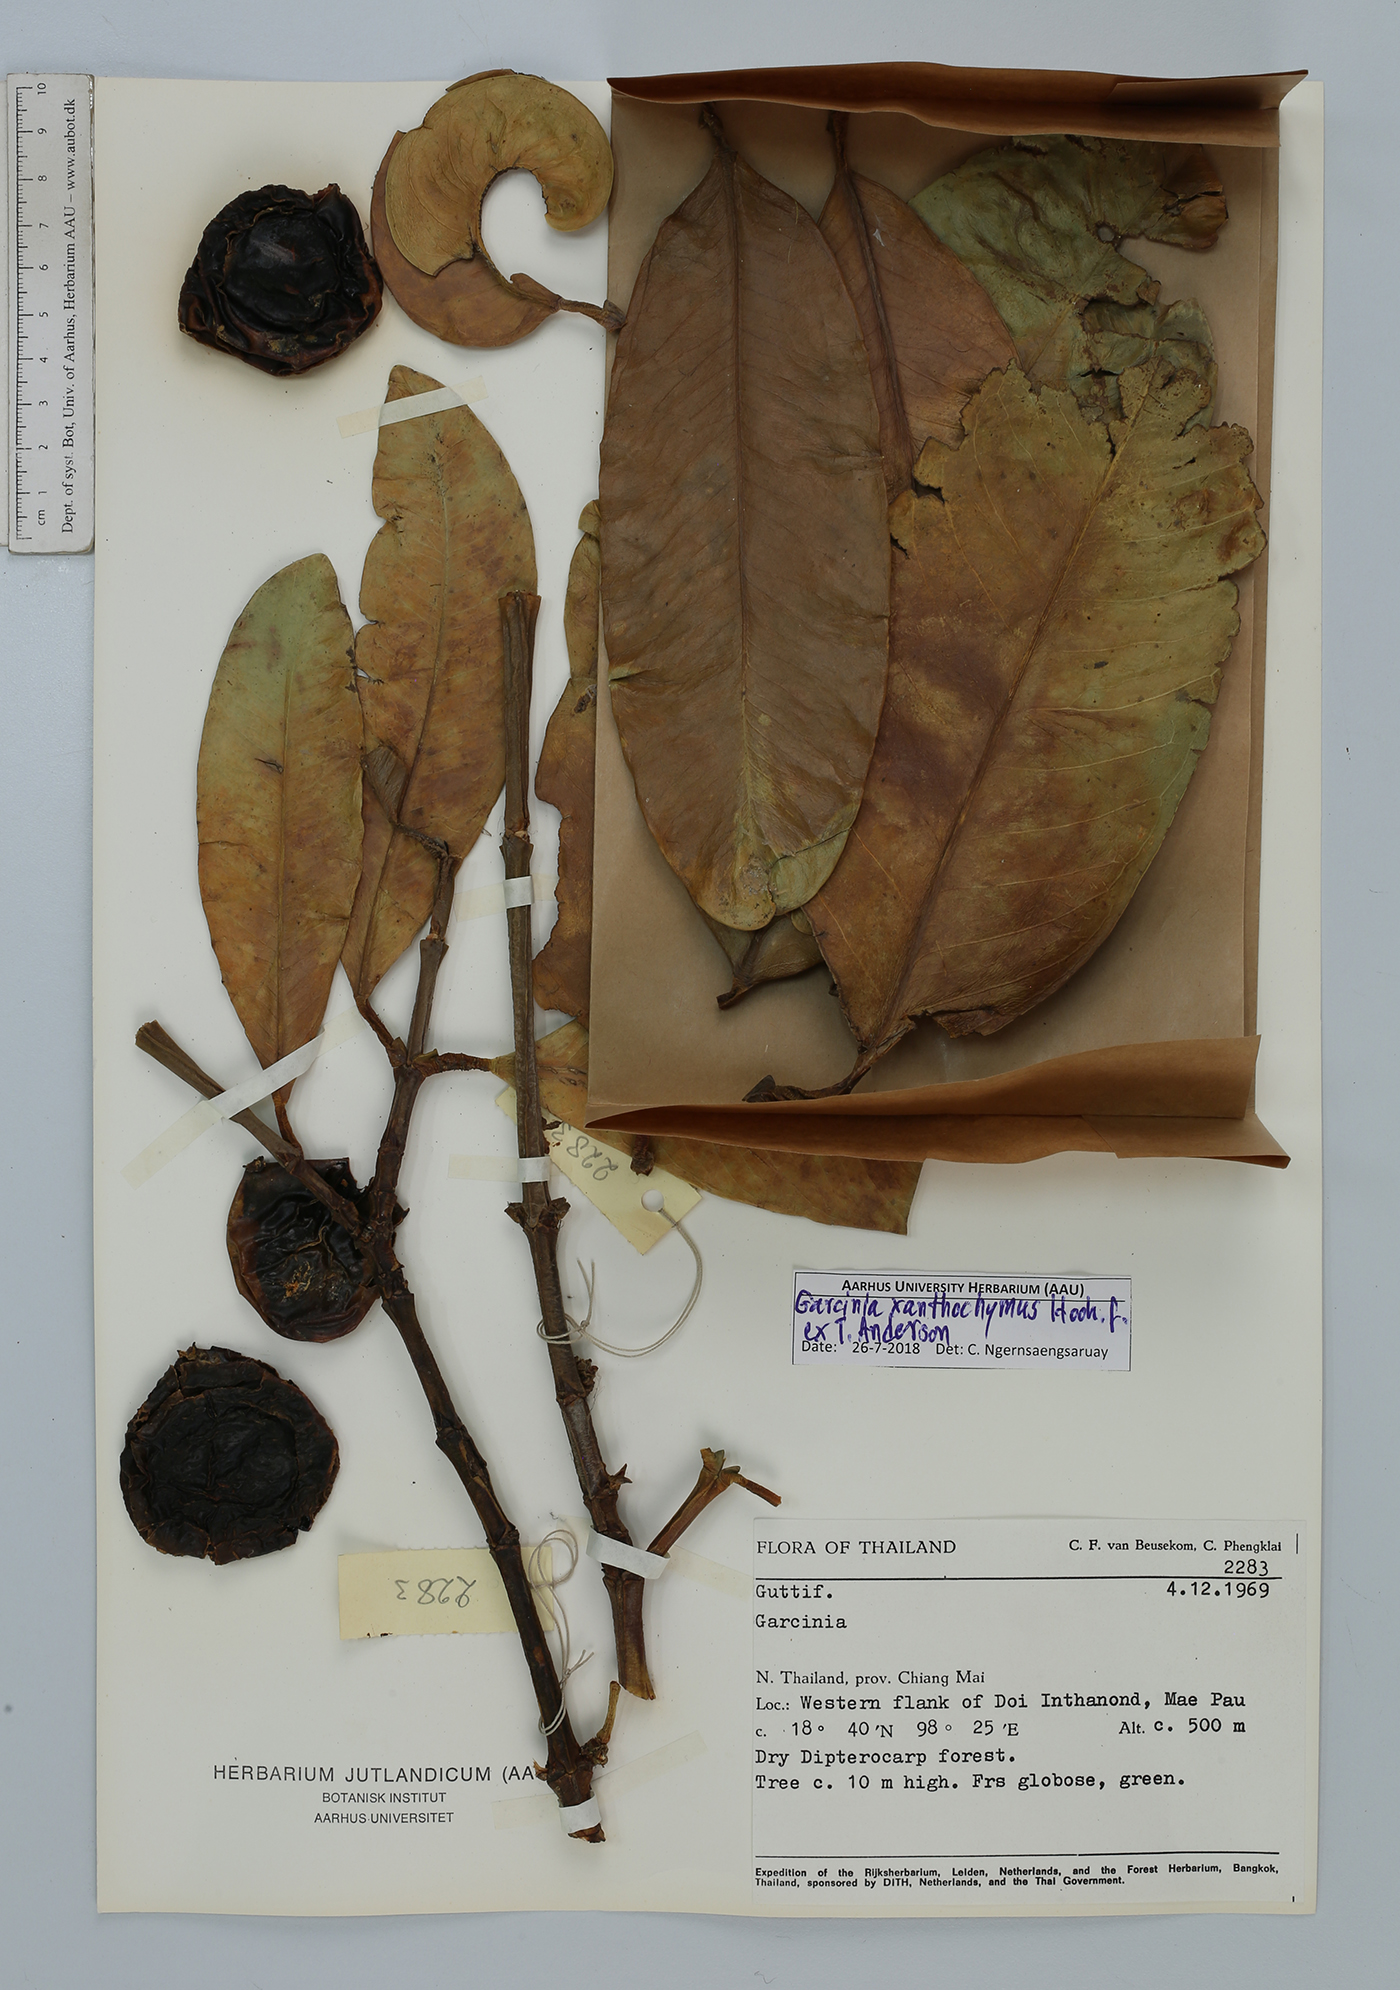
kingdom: Plantae
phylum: Tracheophyta
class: Magnoliopsida
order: Malpighiales
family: Clusiaceae
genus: Garcinia
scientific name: Garcinia xanthochymus
